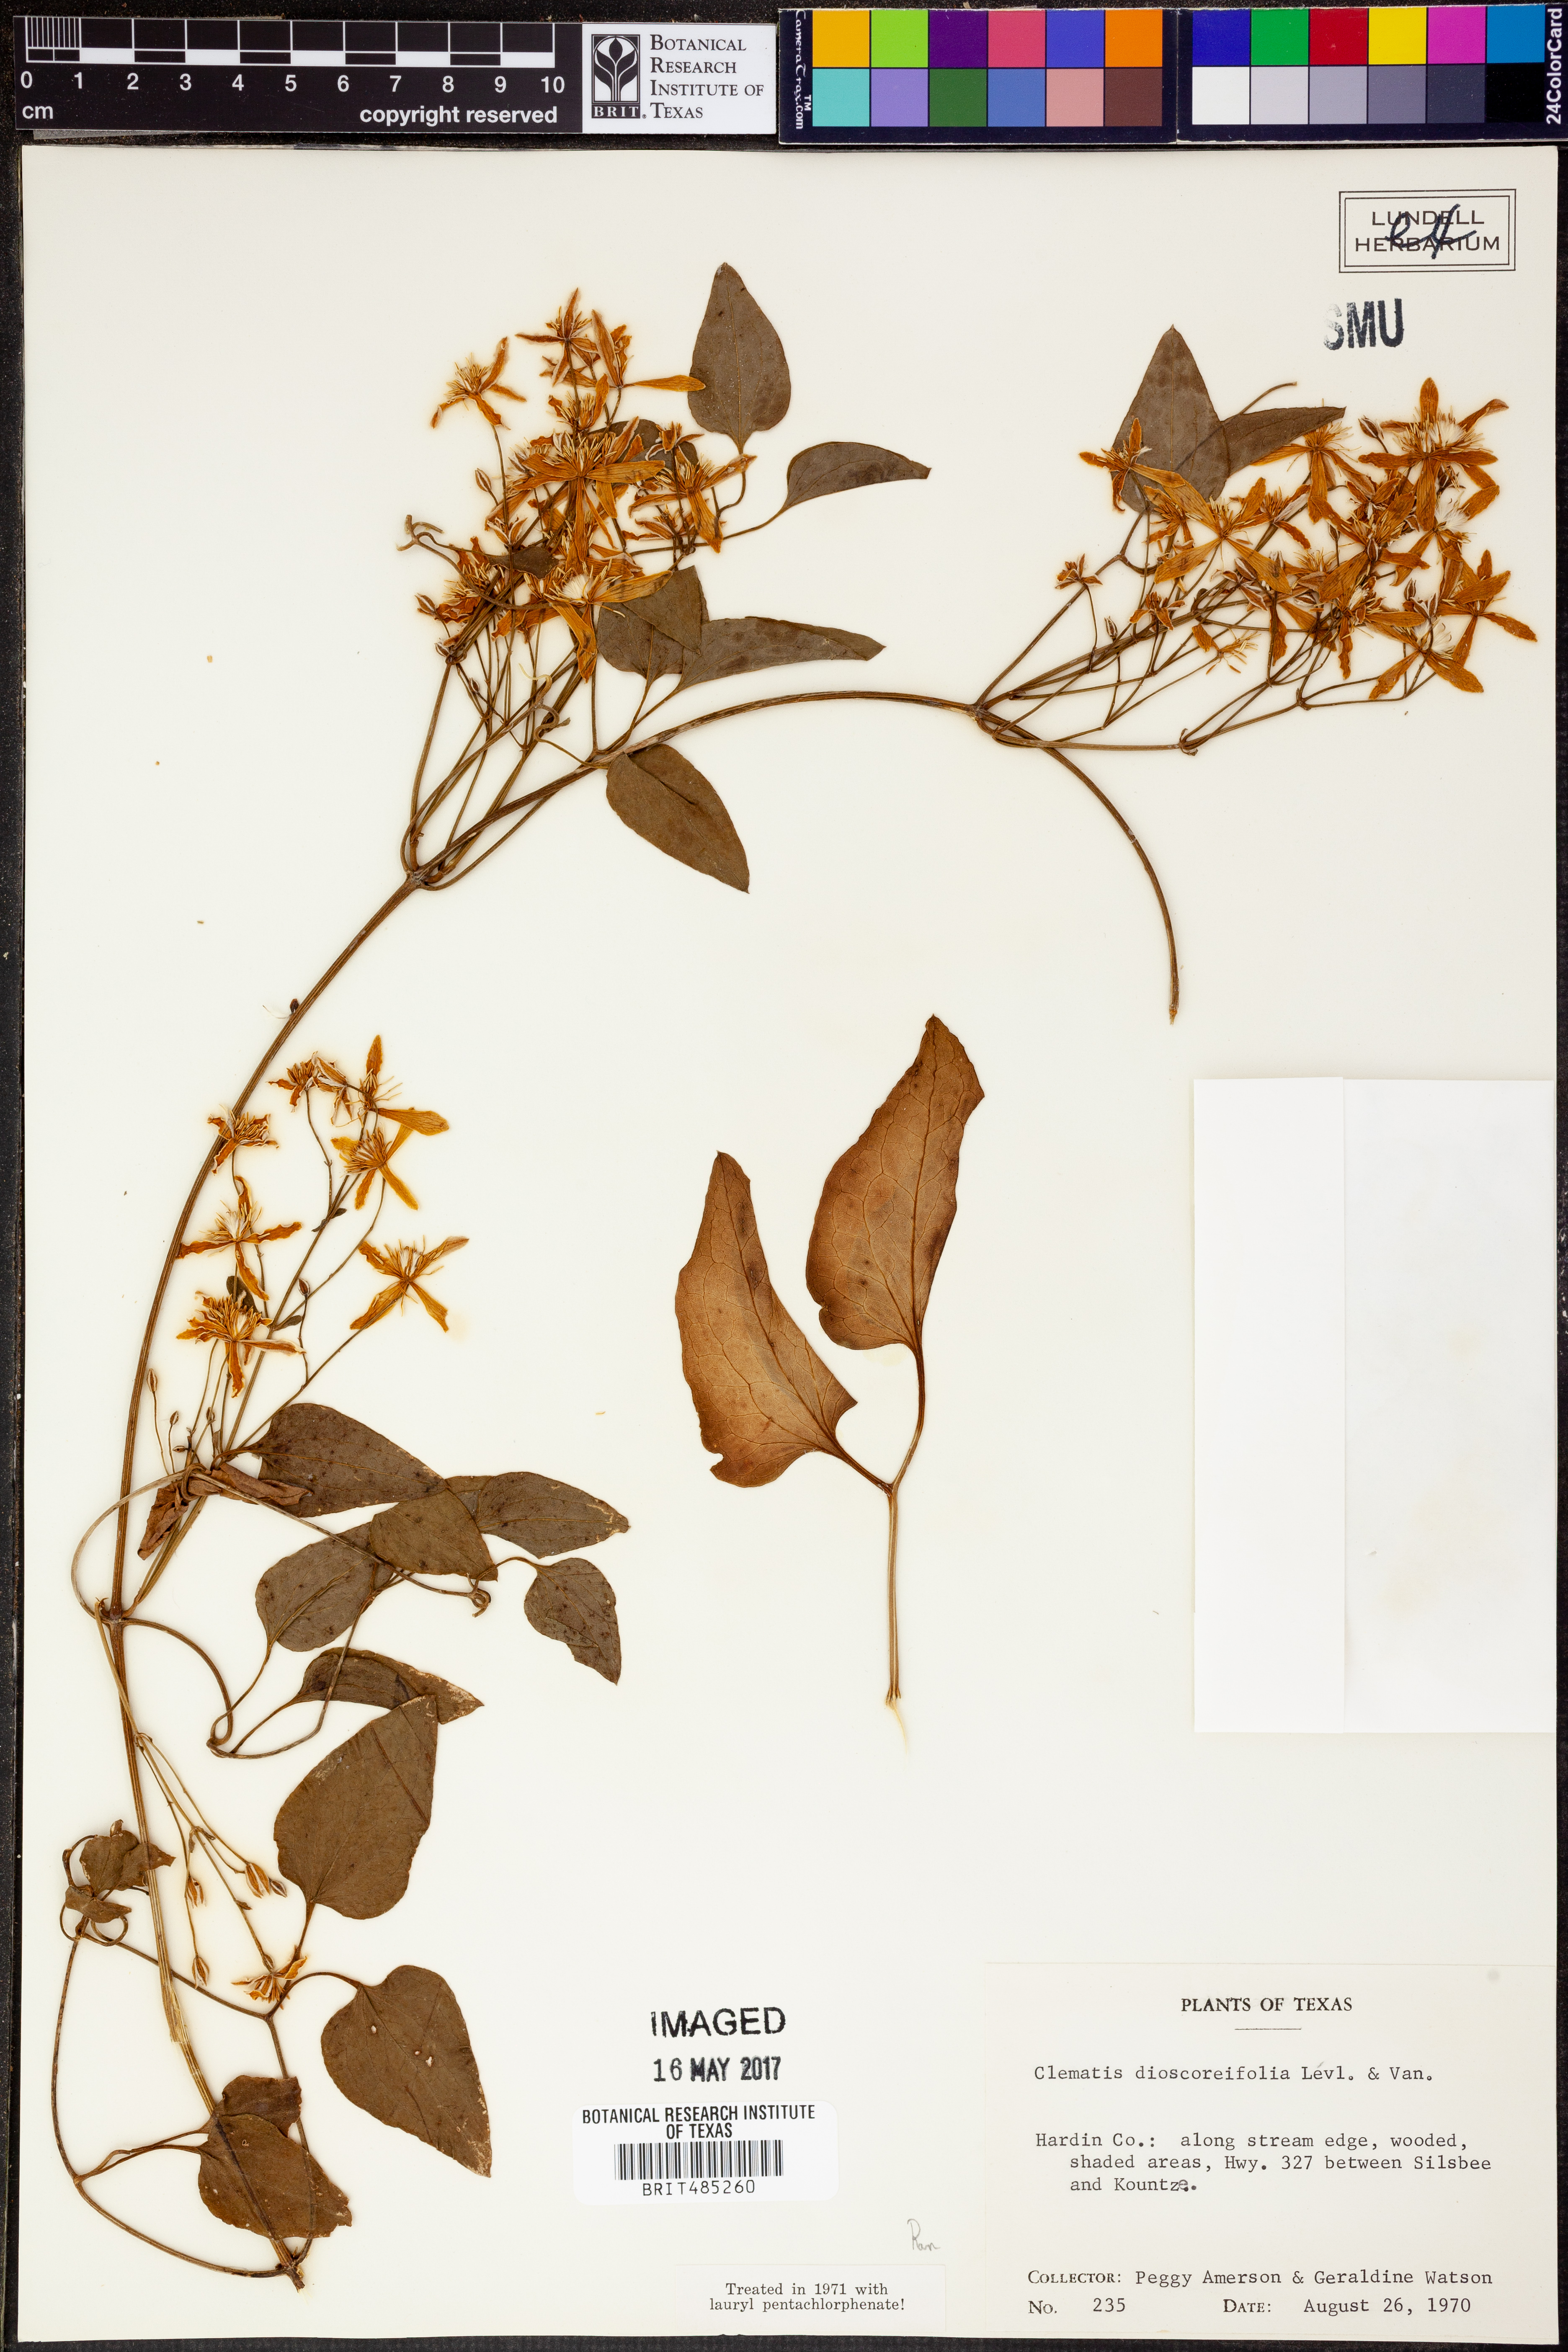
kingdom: Plantae
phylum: Tracheophyta
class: Magnoliopsida
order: Ranunculales
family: Ranunculaceae
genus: Clematis
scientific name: Clematis terniflora
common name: Sweet autumn clematis
